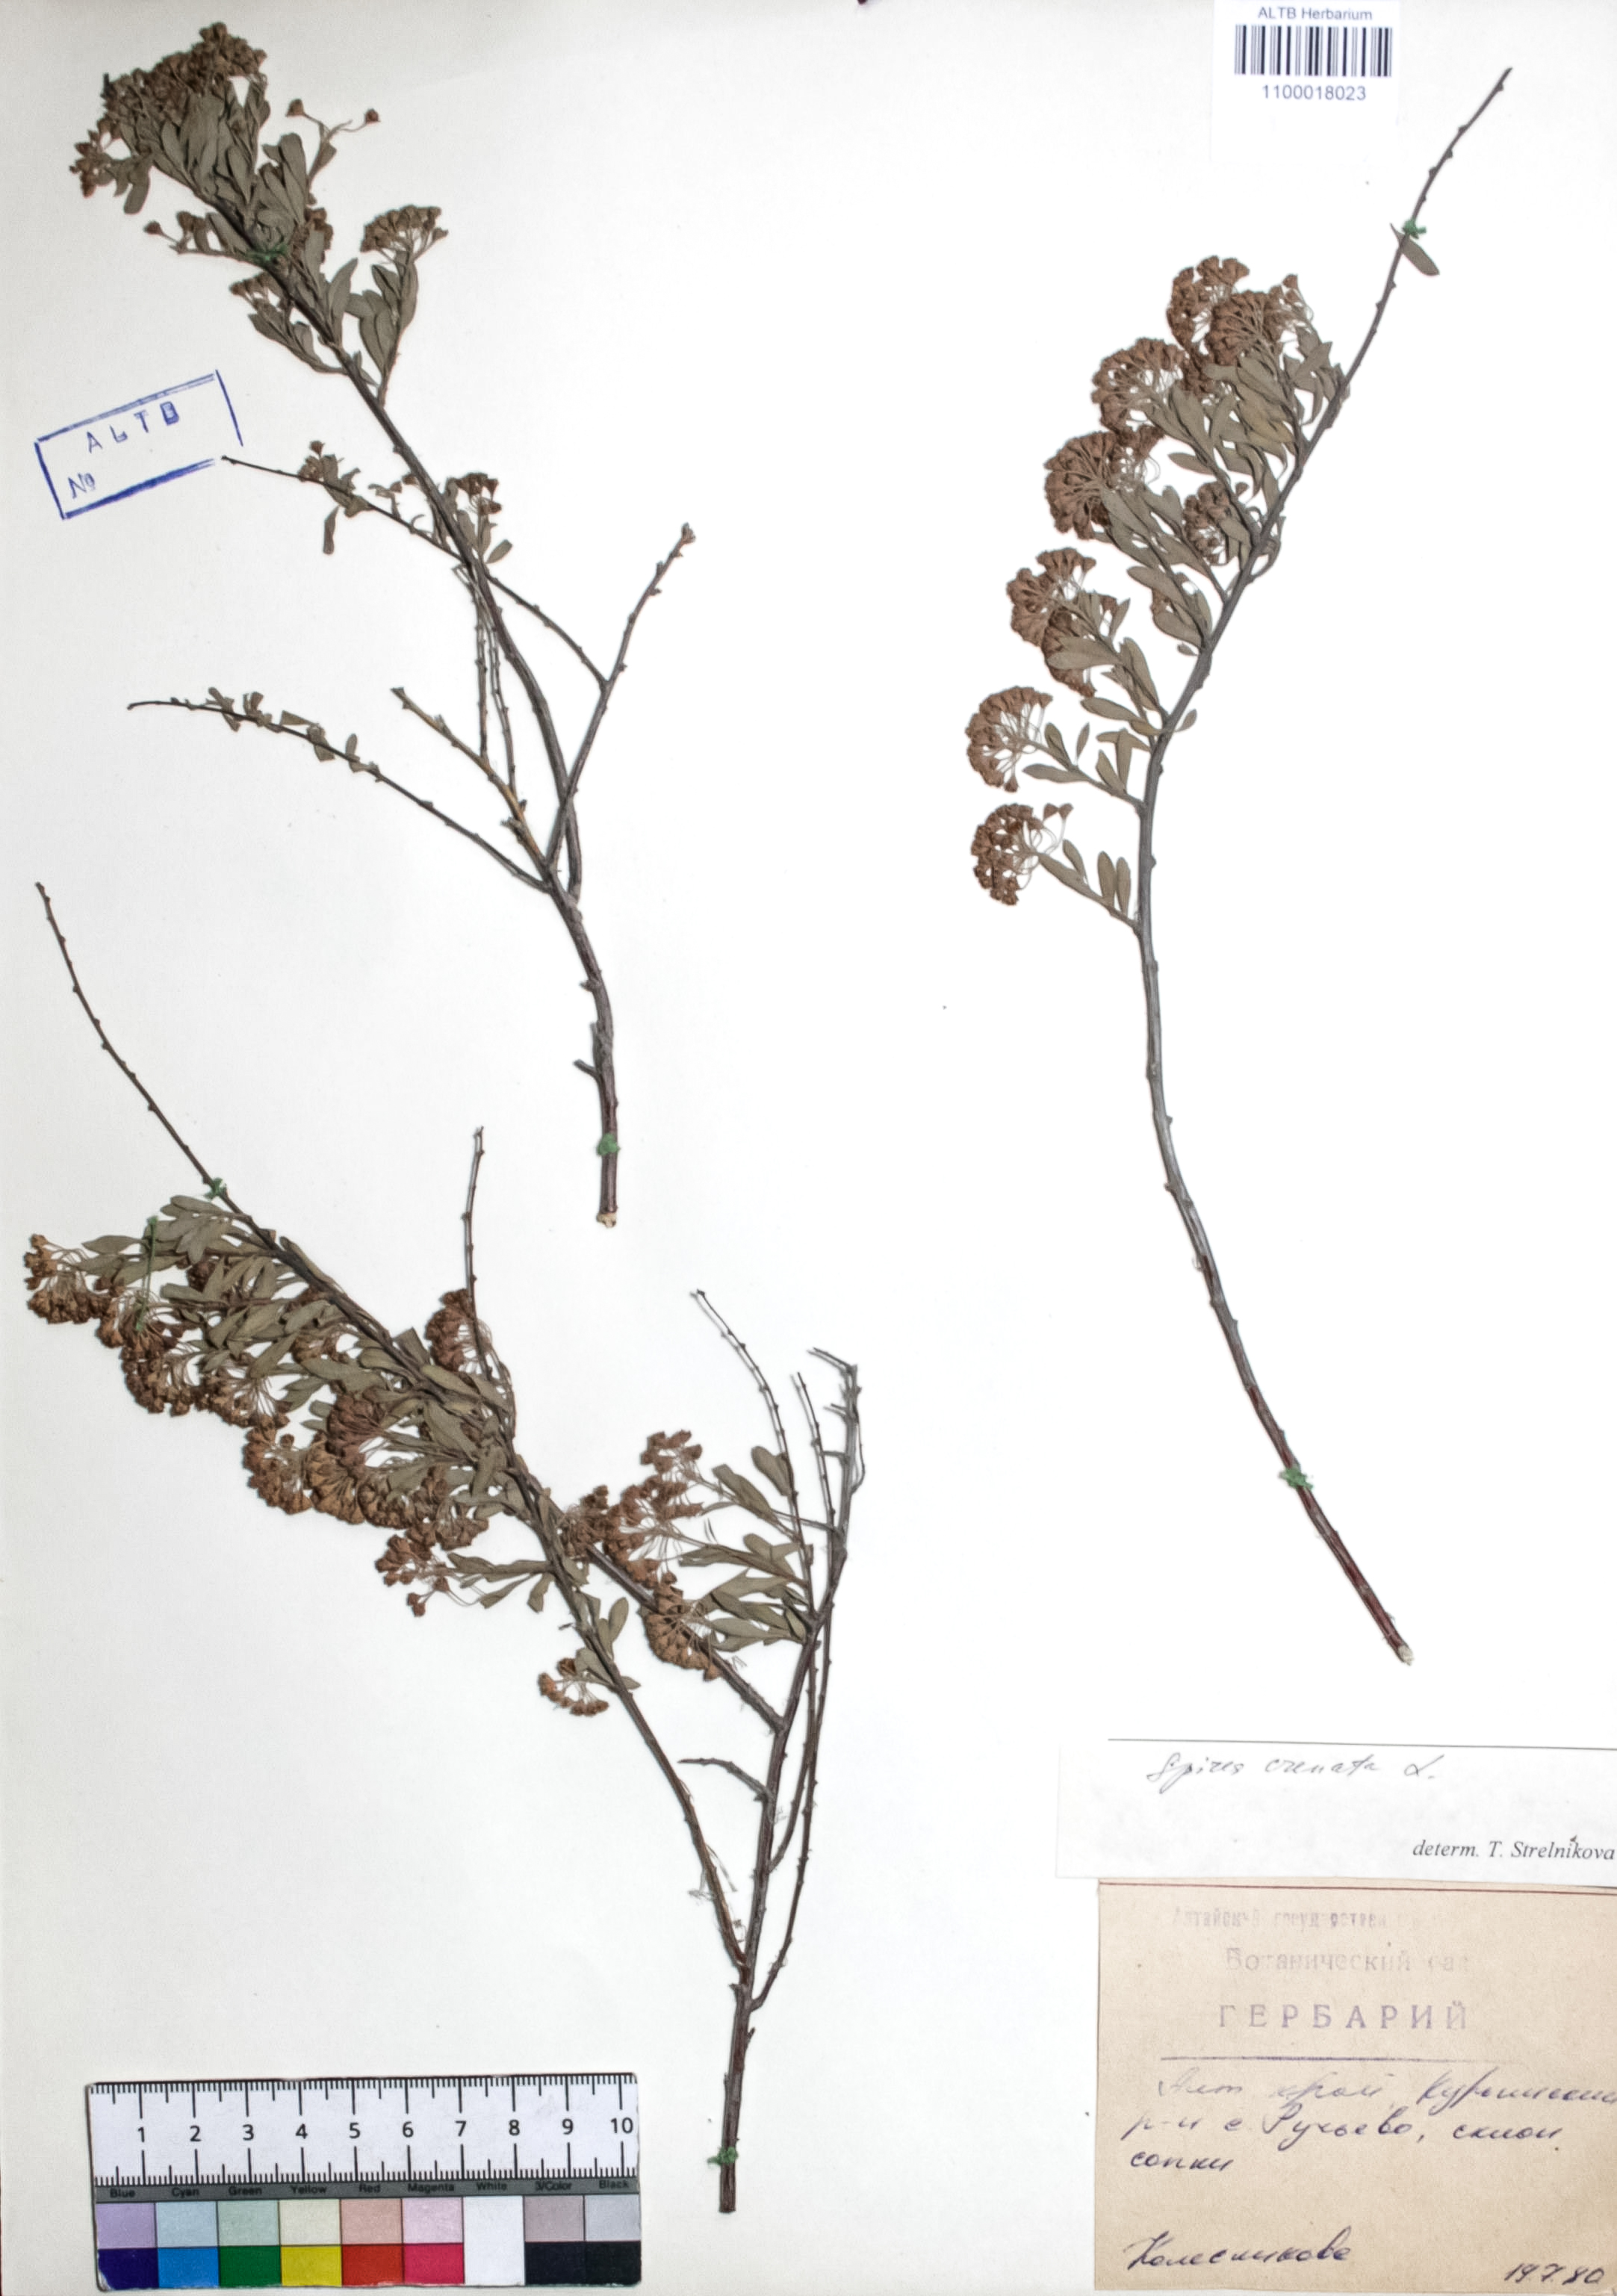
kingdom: Plantae
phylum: Tracheophyta
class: Magnoliopsida
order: Rosales
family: Rosaceae
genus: Spiraea
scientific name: Spiraea crenata
